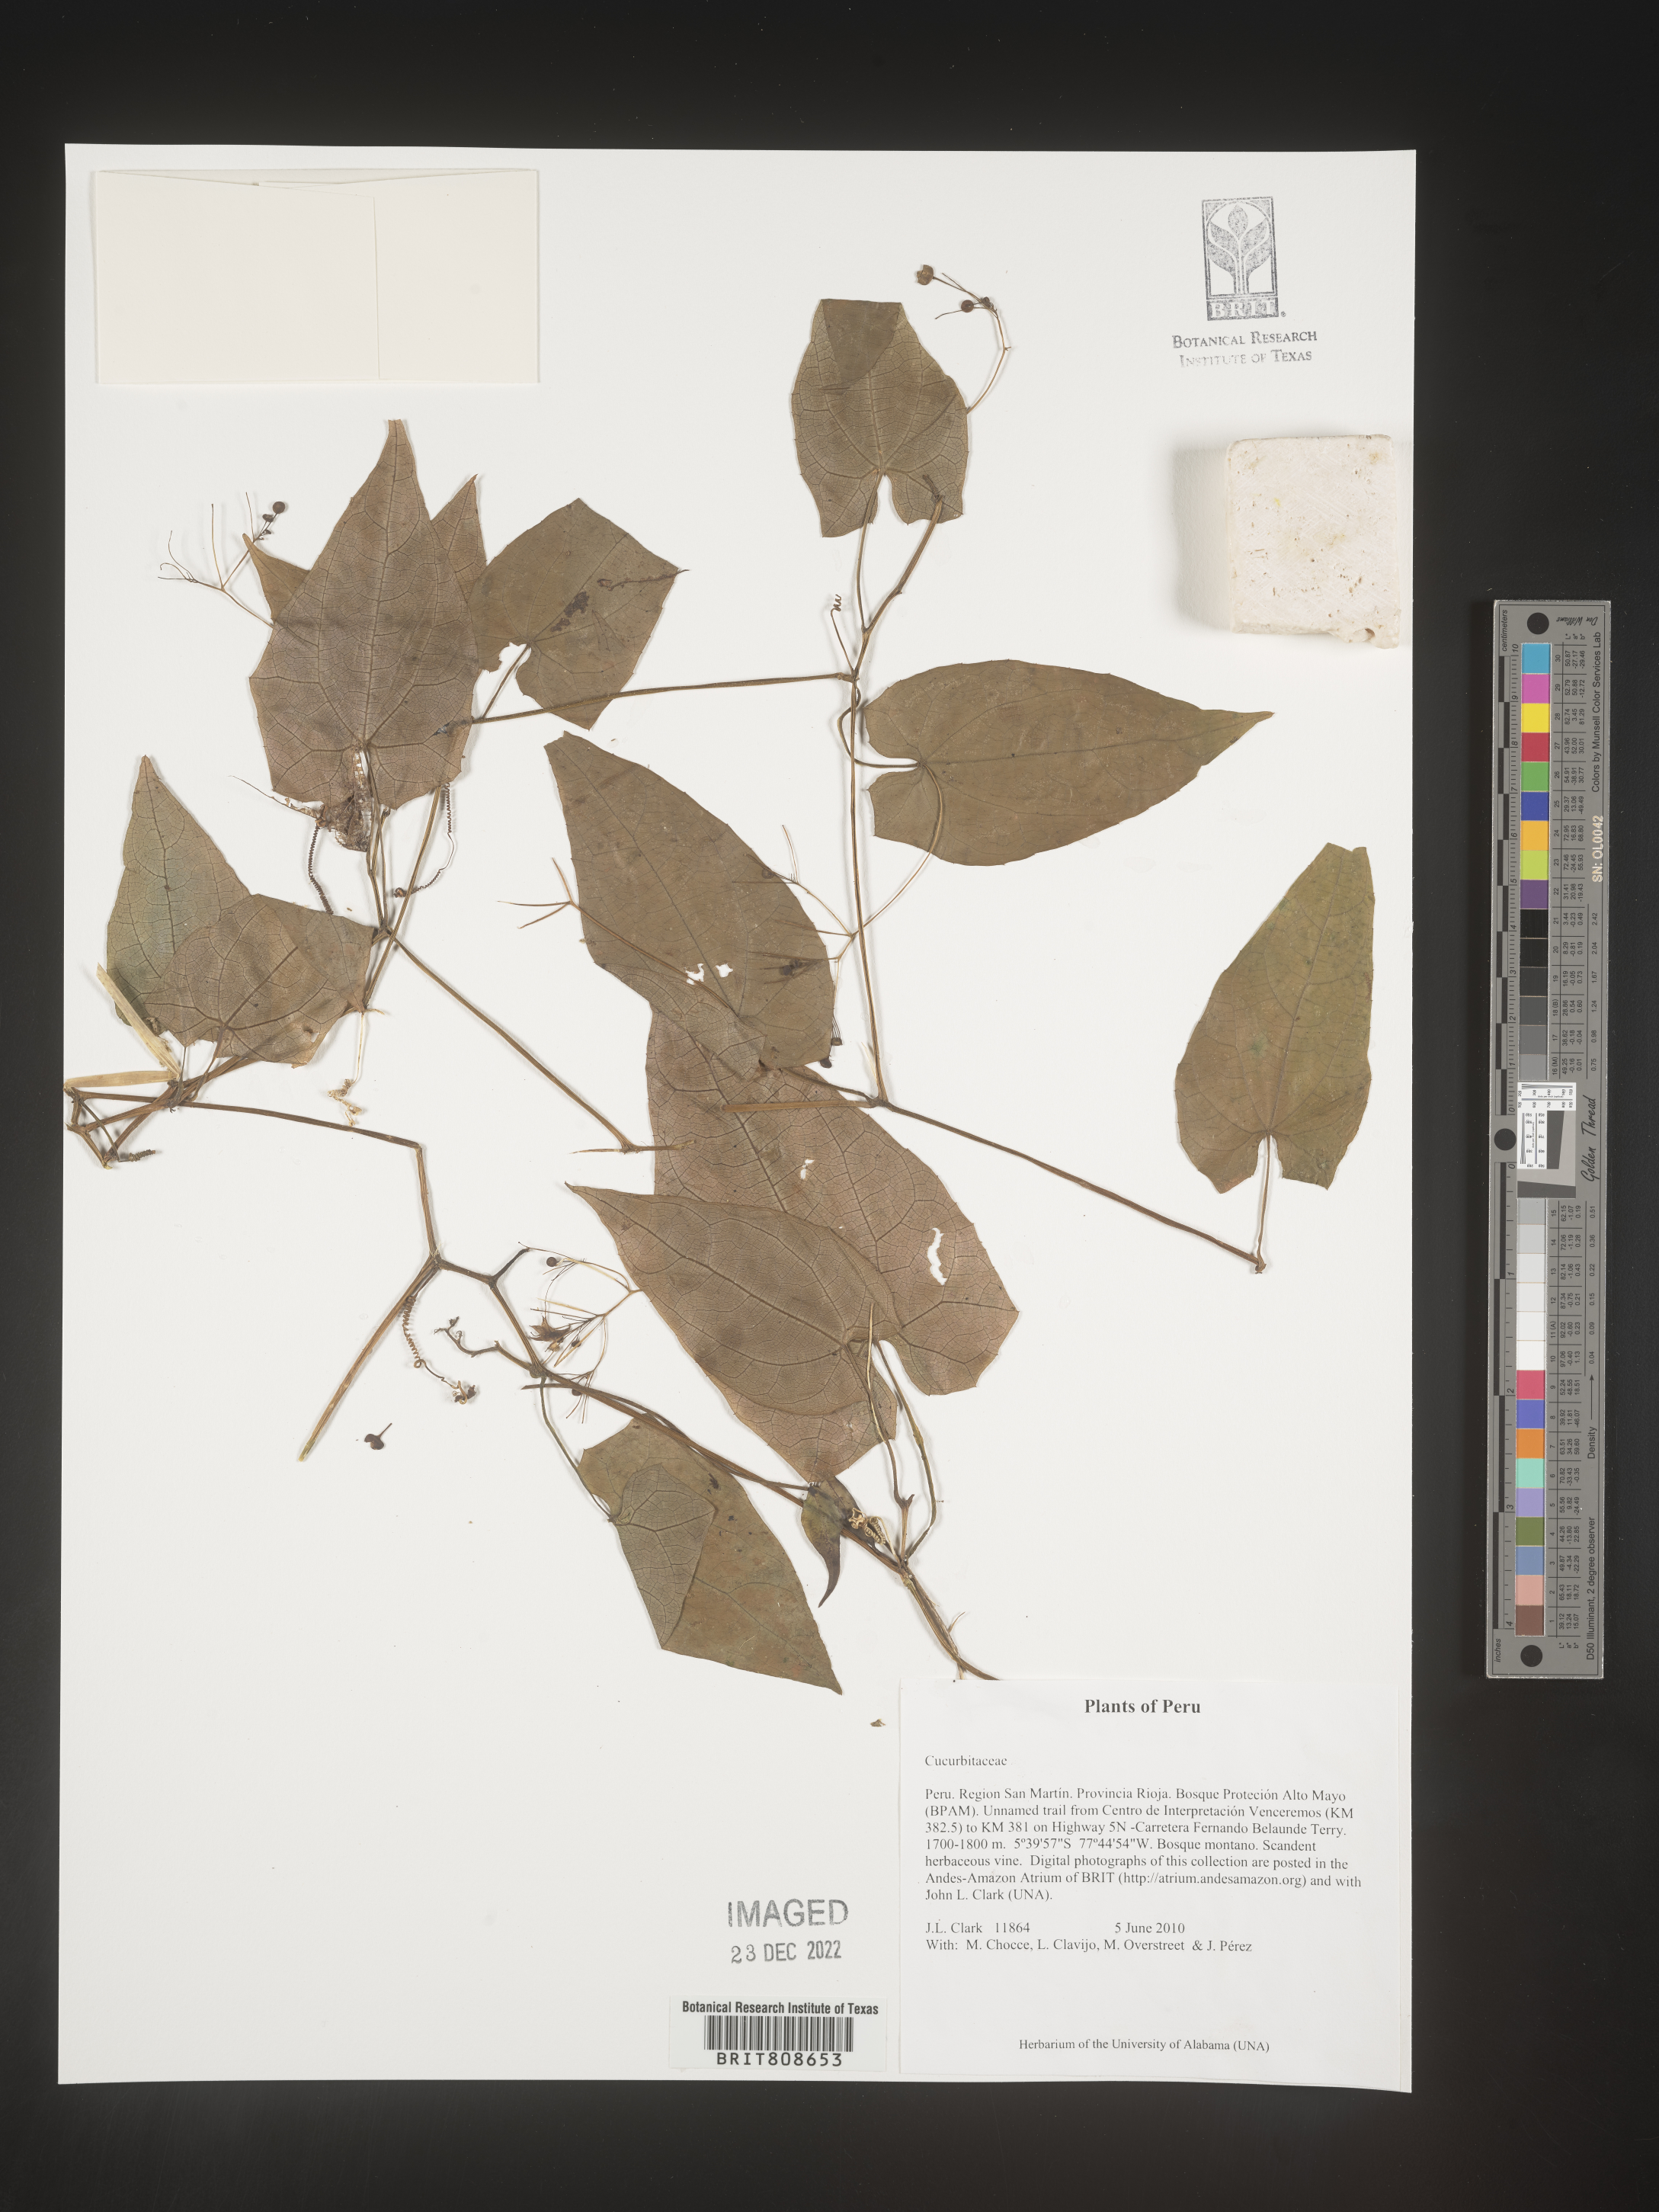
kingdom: Plantae
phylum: Tracheophyta
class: Magnoliopsida
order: Cucurbitales
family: Cucurbitaceae
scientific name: Cucurbitaceae
